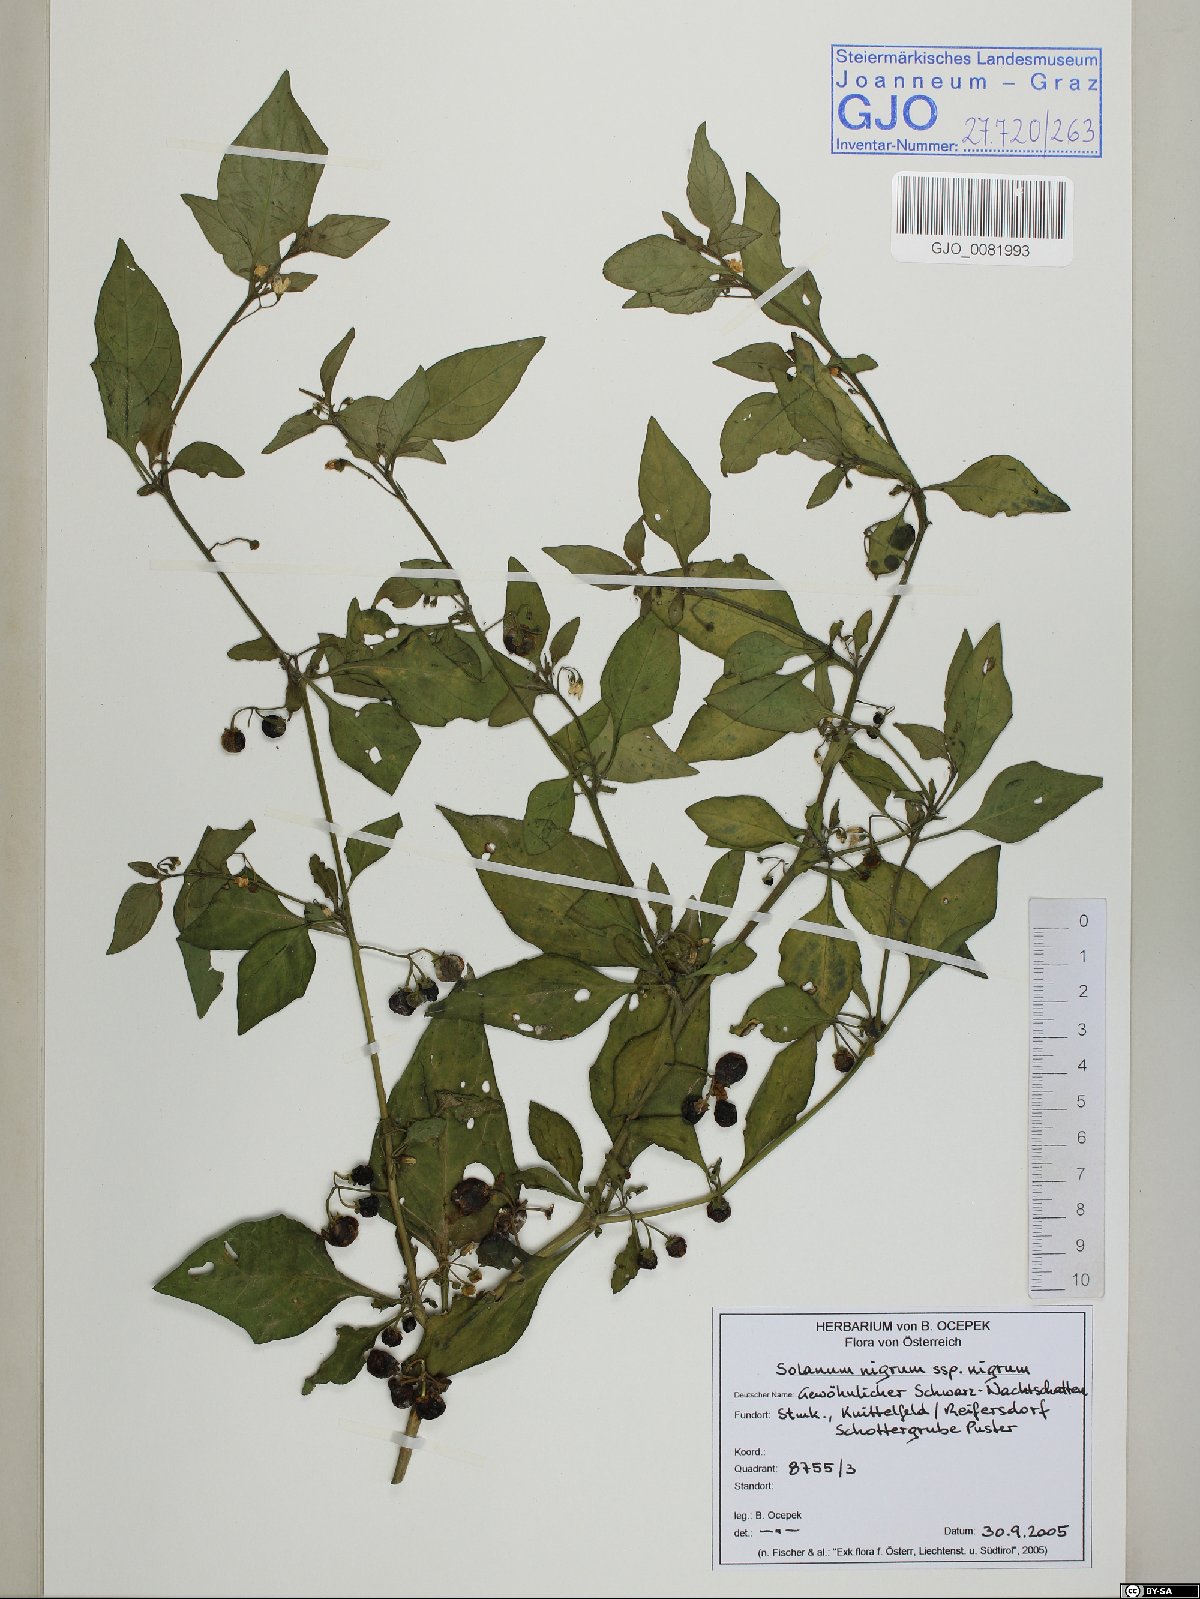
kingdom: Plantae
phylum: Tracheophyta
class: Magnoliopsida
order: Solanales
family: Solanaceae
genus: Solanum
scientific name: Solanum nigrum
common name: Black nightshade
